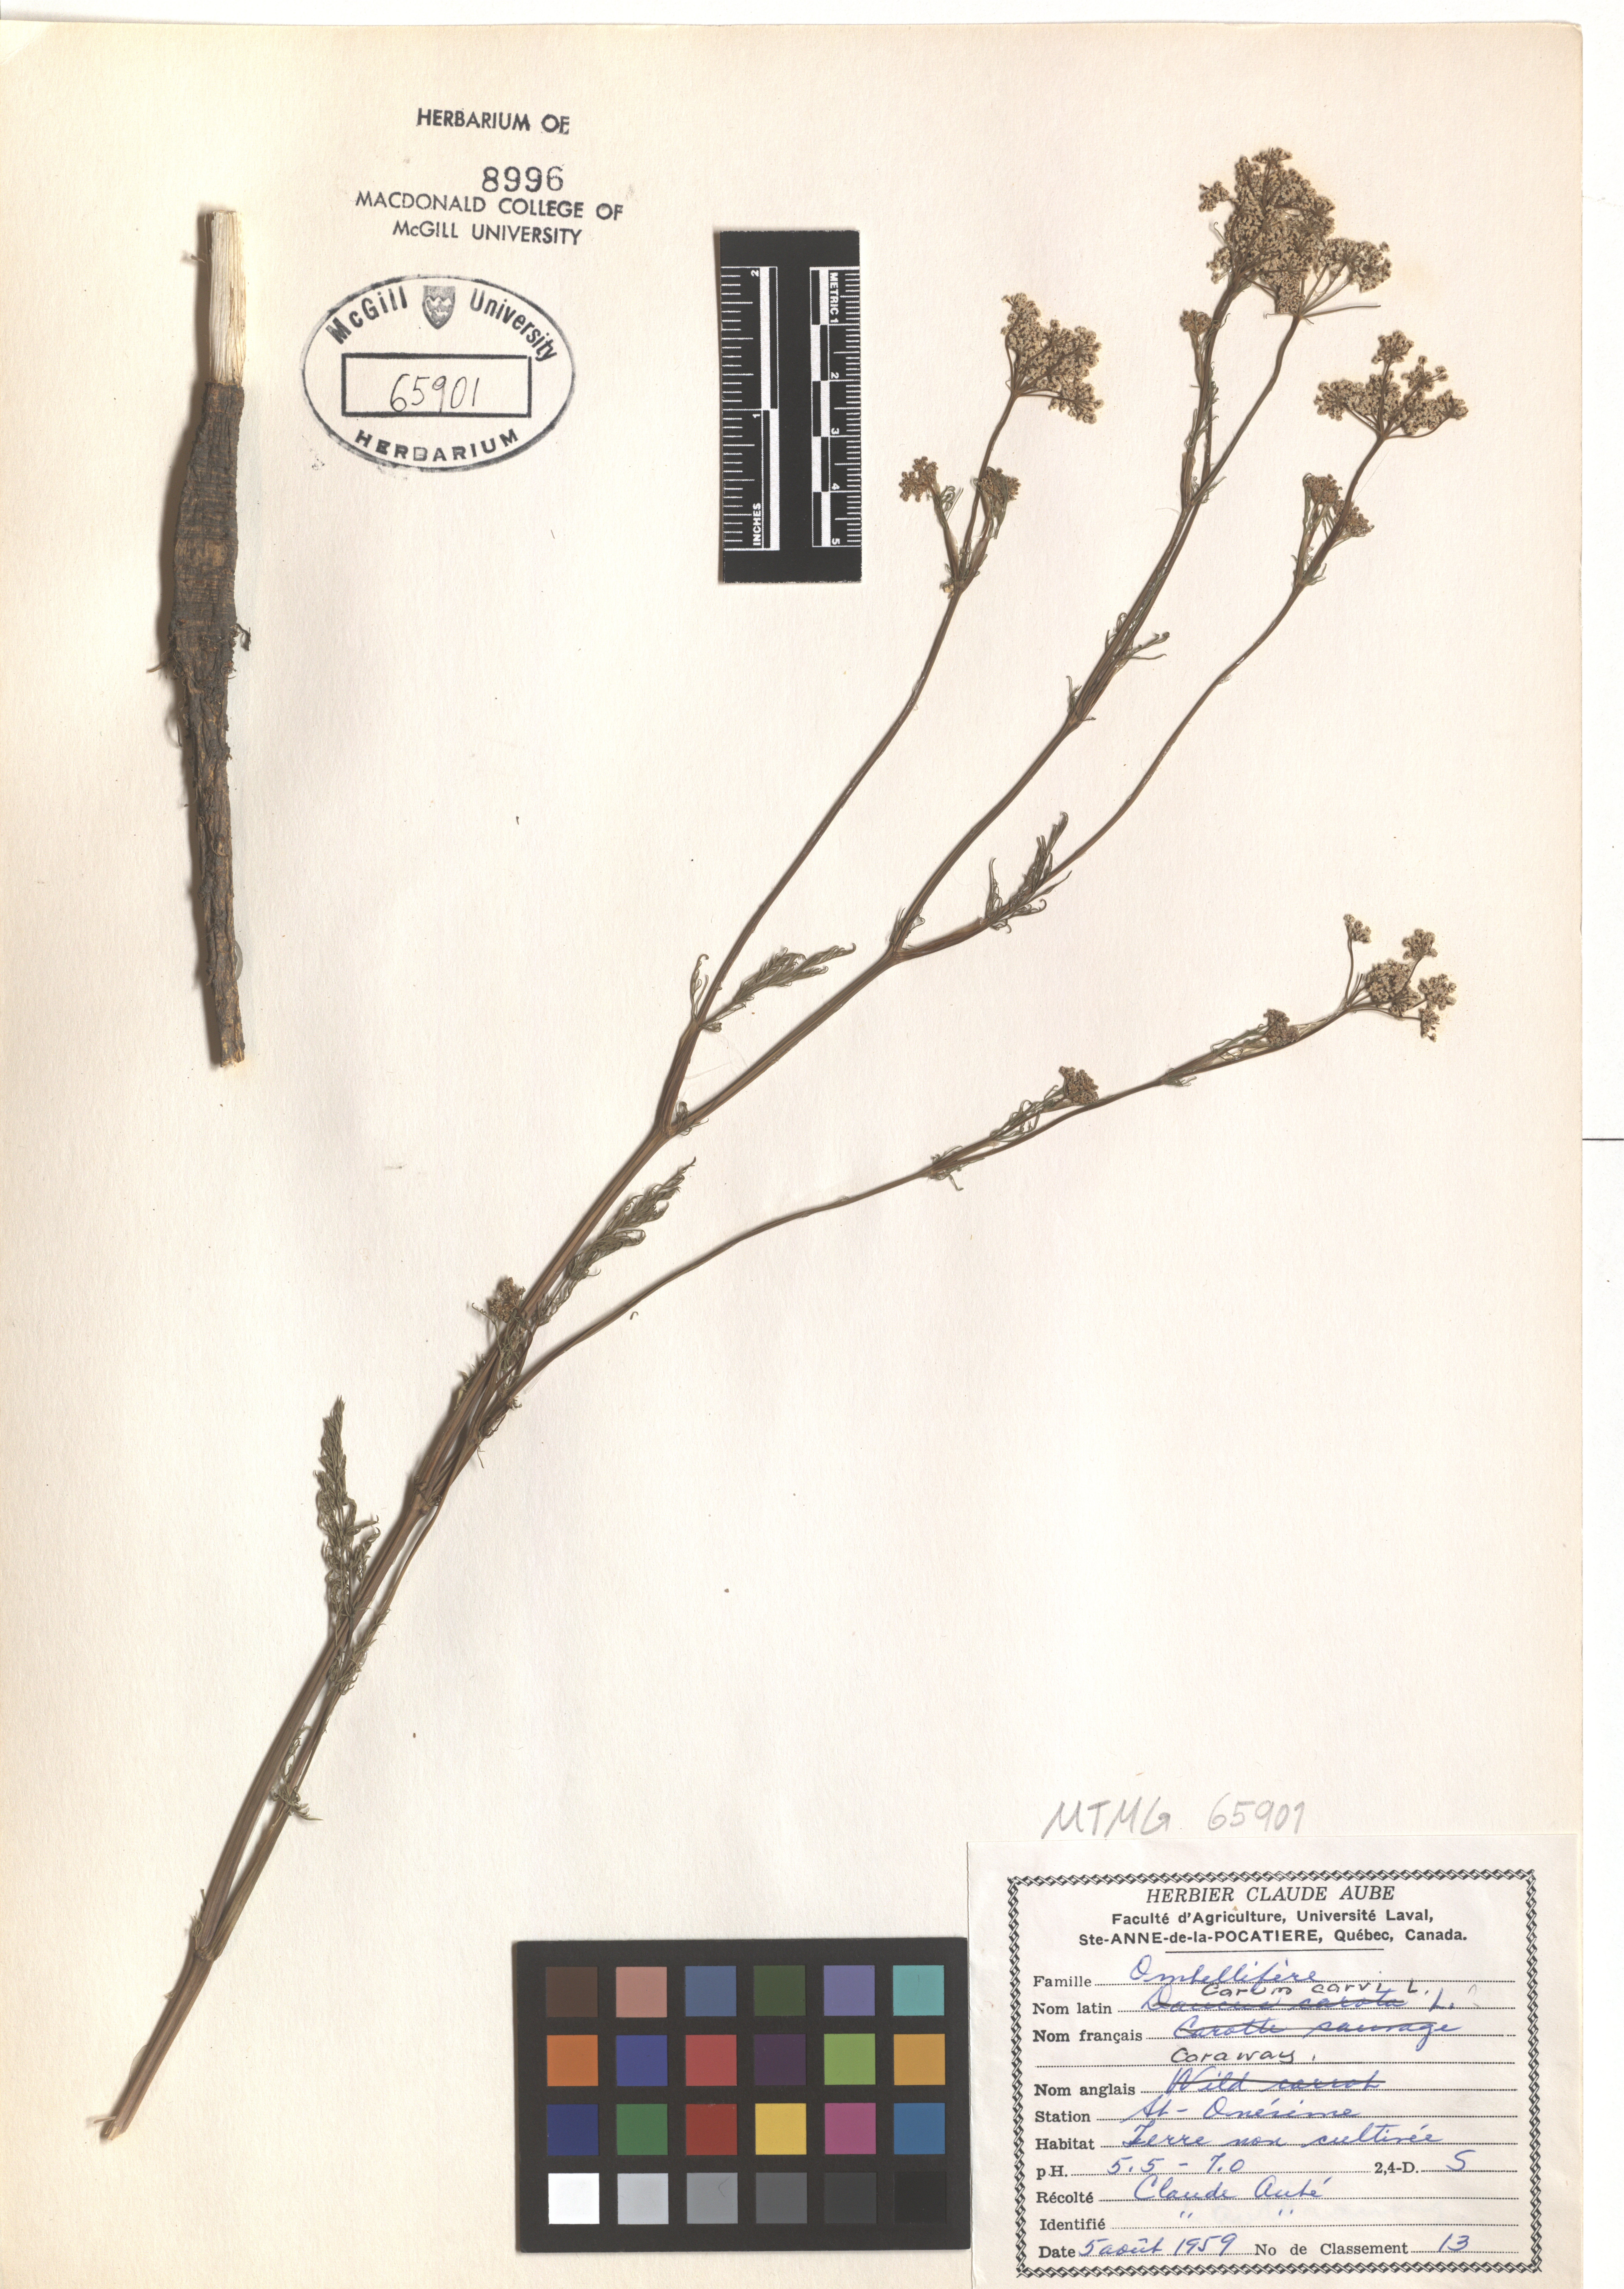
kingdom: Plantae
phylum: Tracheophyta
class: Magnoliopsida
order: Apiales
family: Apiaceae
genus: Carum
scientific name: Carum carvi
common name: Caraway
